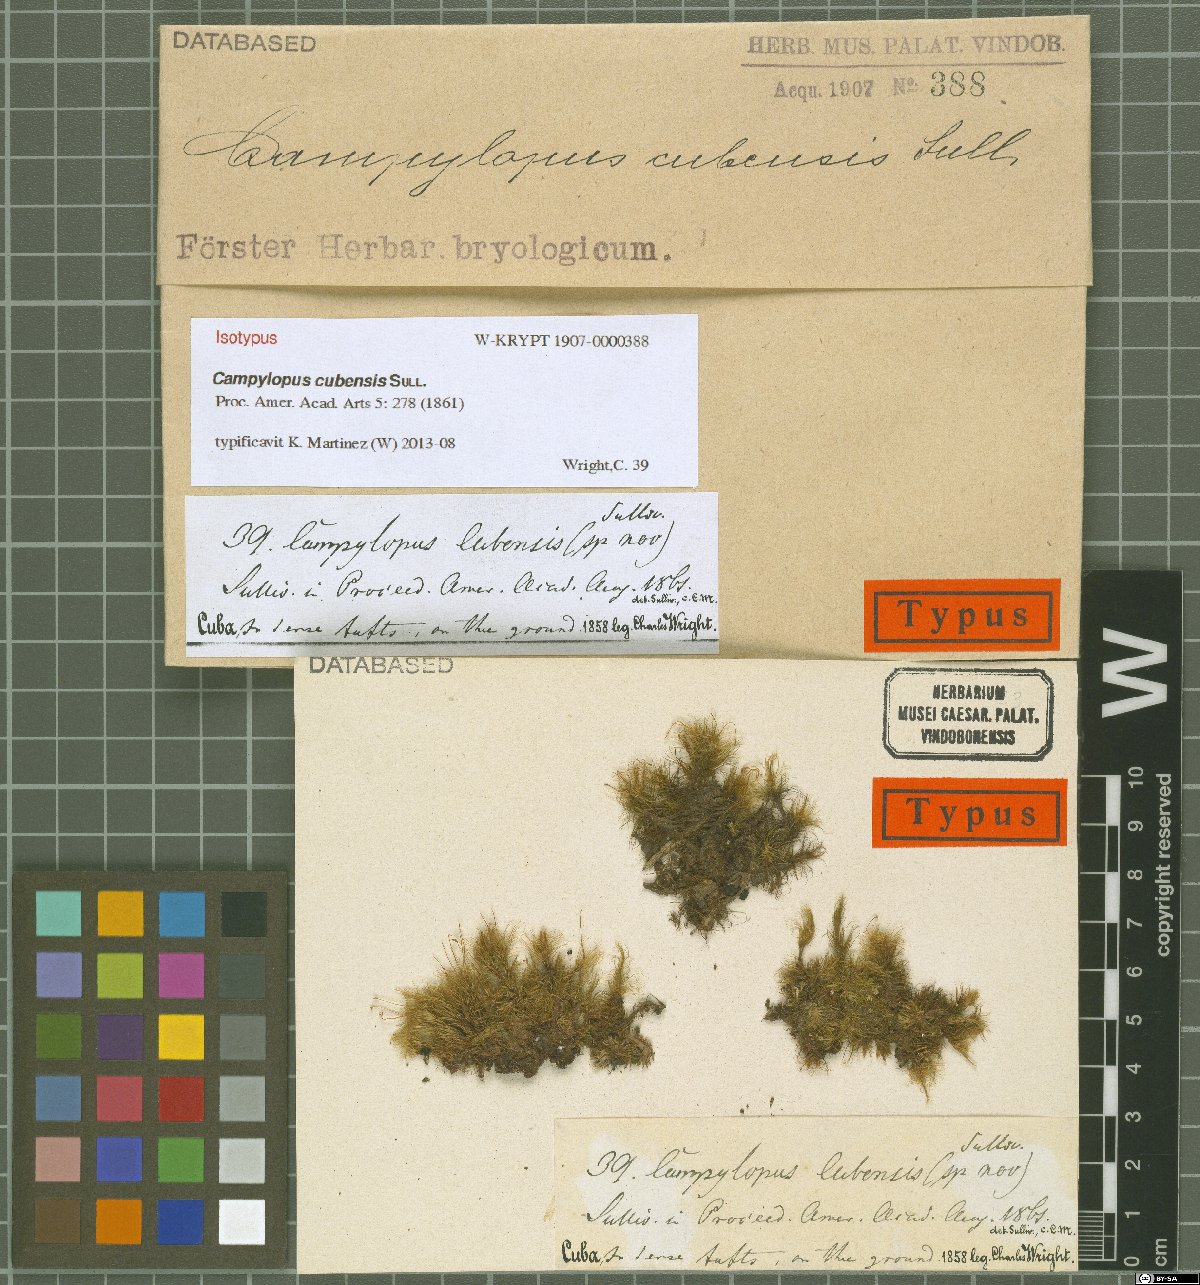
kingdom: Plantae
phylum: Bryophyta
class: Bryopsida
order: Dicranales
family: Leucobryaceae
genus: Campylopus
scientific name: Campylopus cubensis
